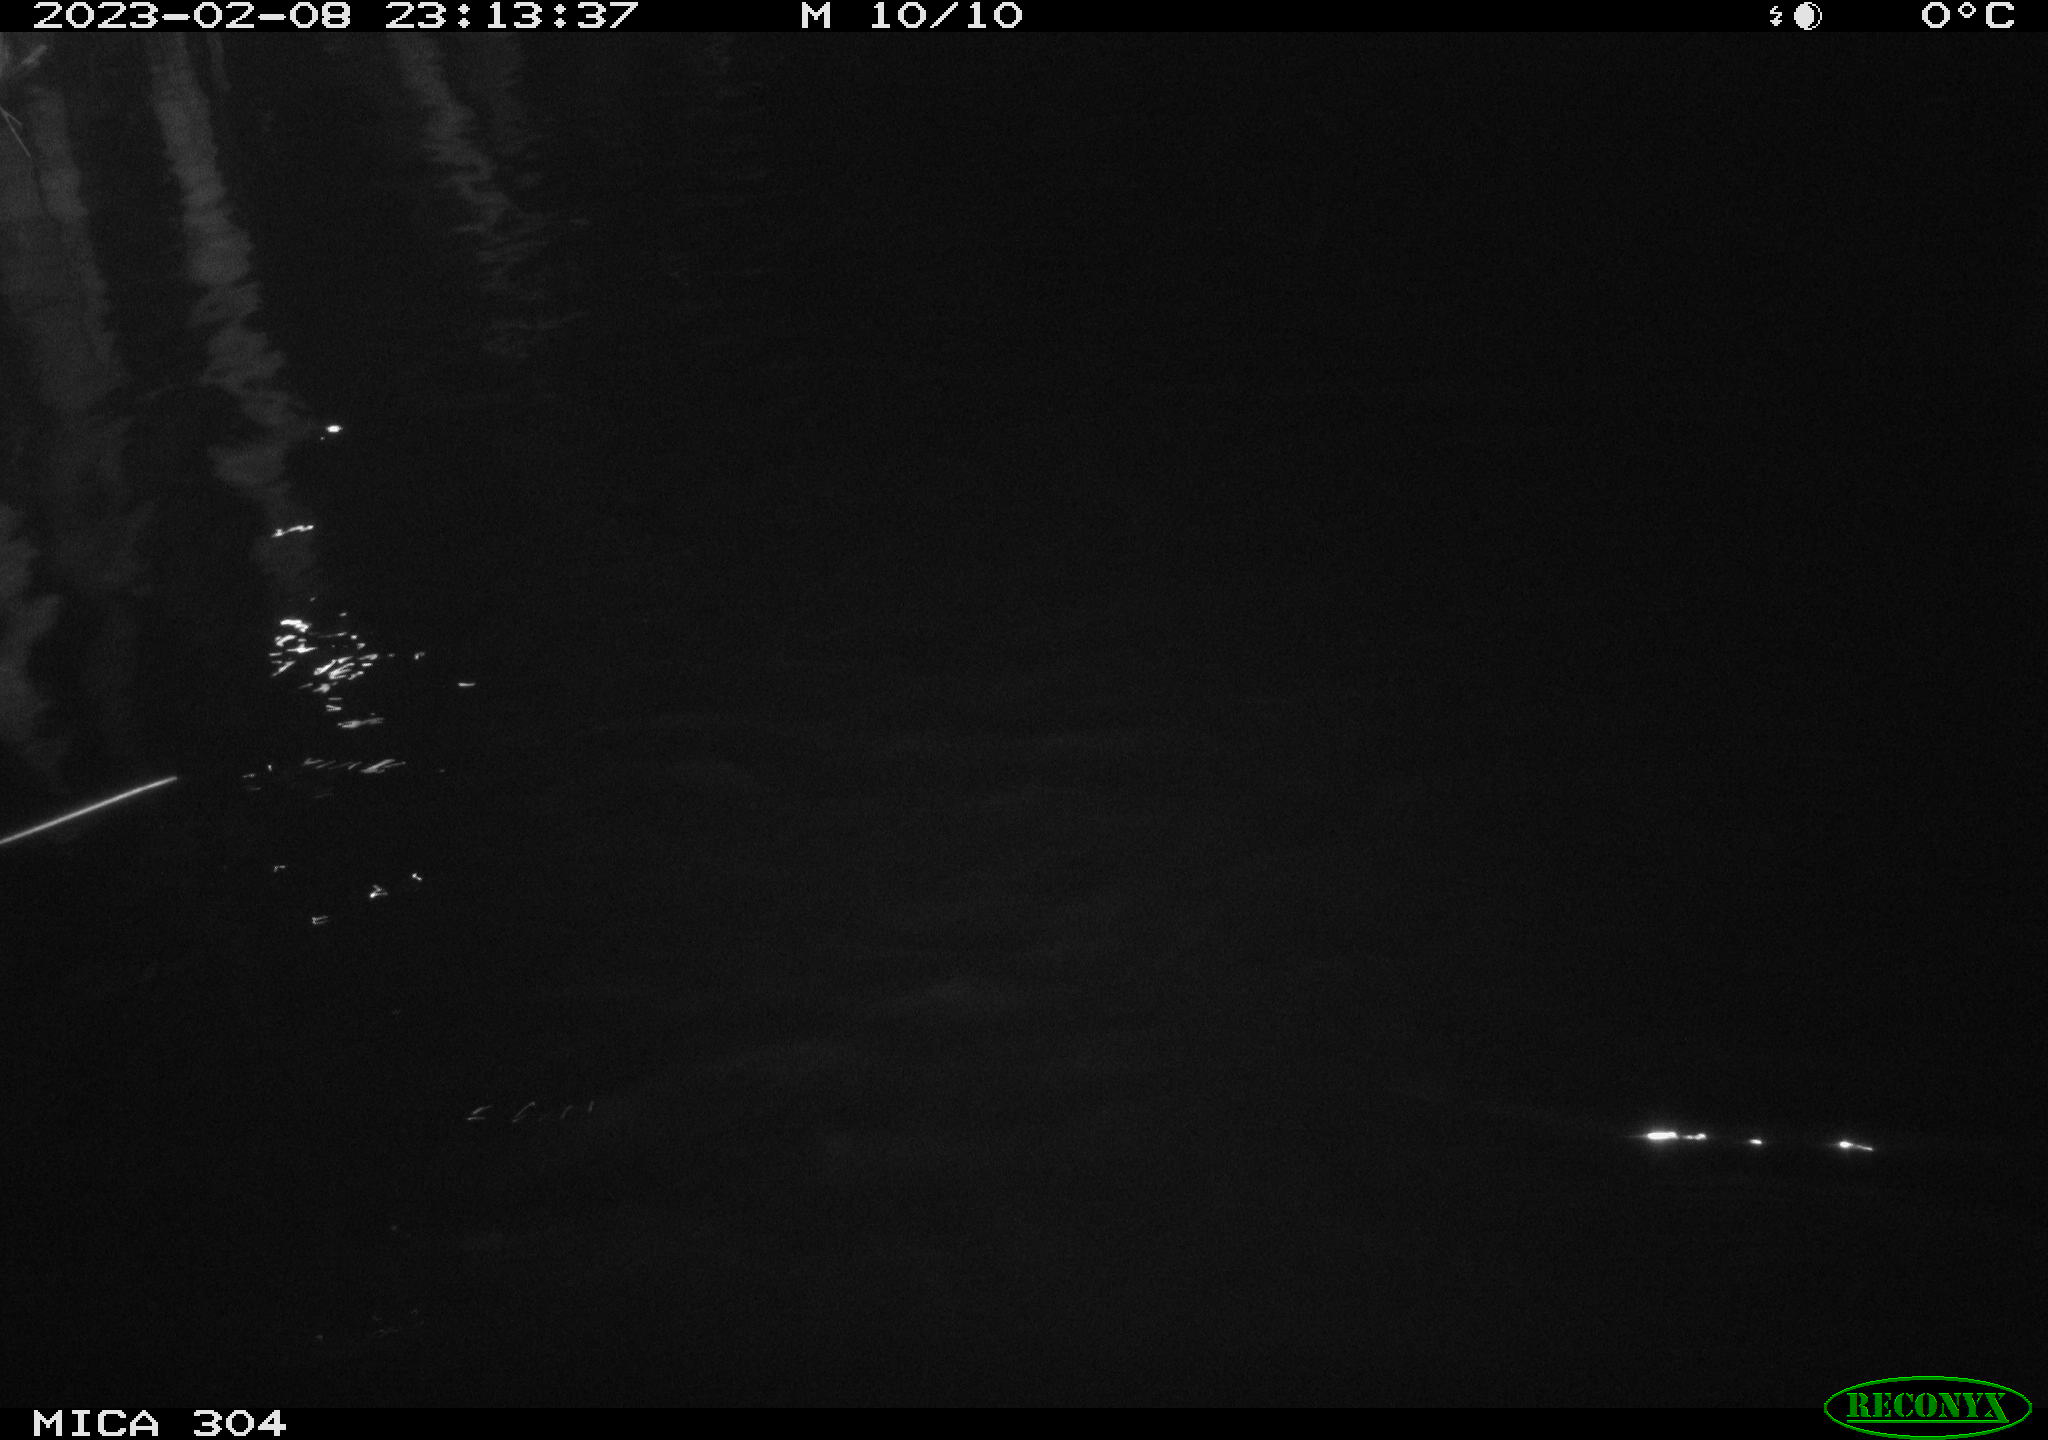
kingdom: Animalia
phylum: Chordata
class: Aves
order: Anseriformes
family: Anatidae
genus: Anas
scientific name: Anas
